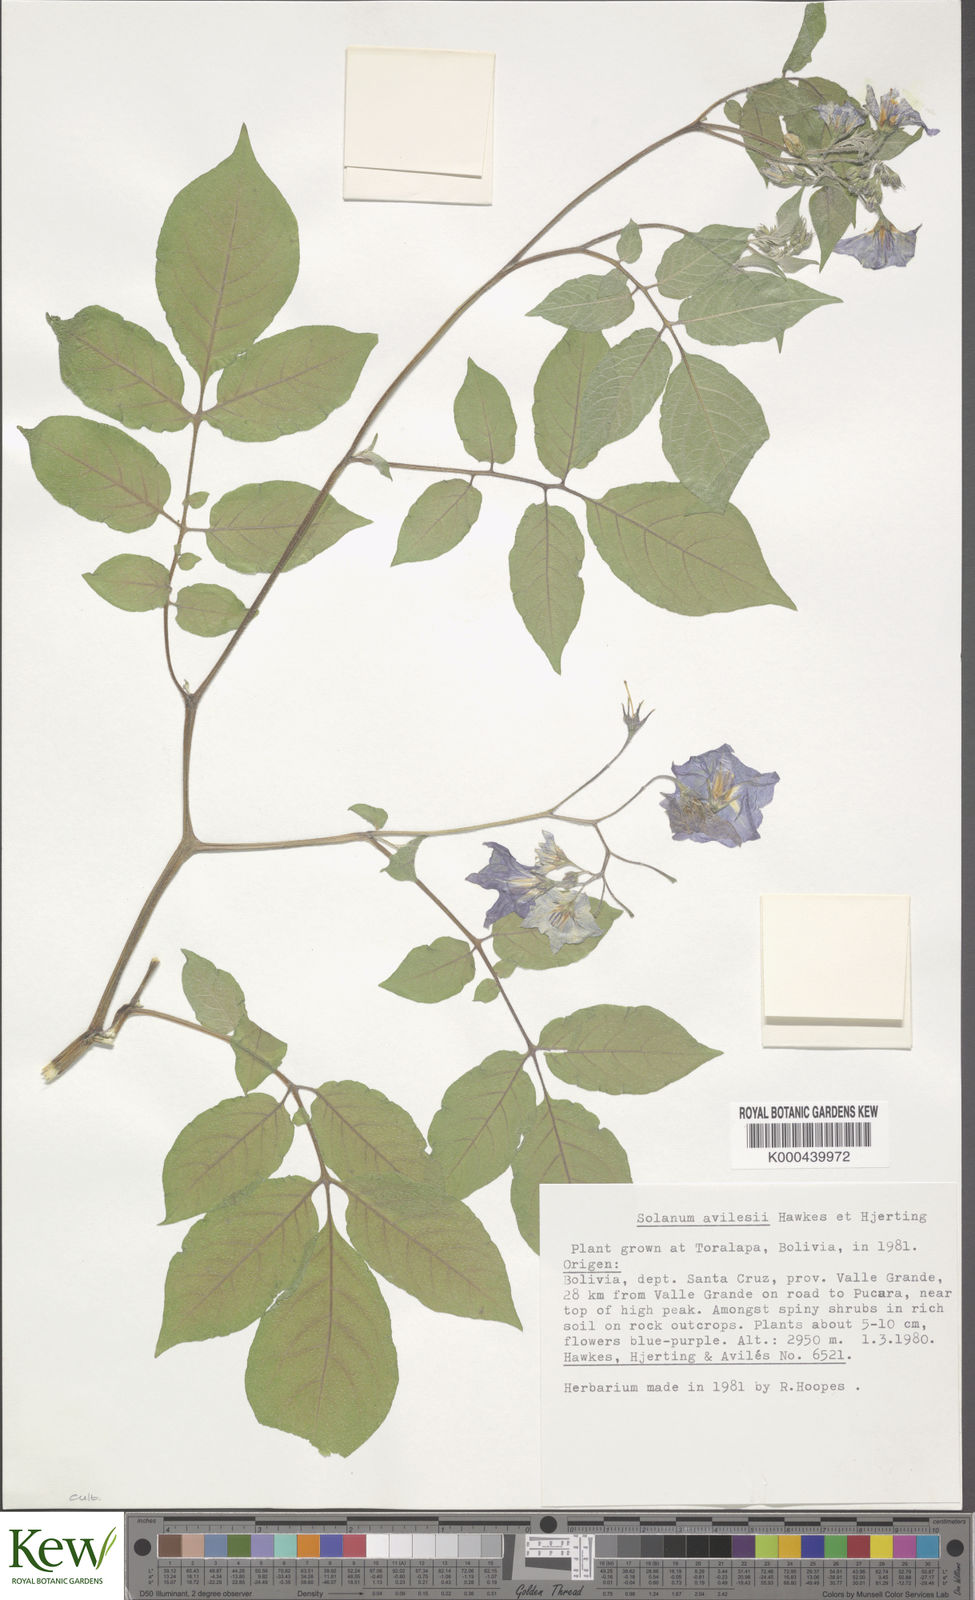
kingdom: Plantae
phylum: Tracheophyta
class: Magnoliopsida
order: Solanales
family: Solanaceae
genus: Solanum
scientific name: Solanum brevicaule
